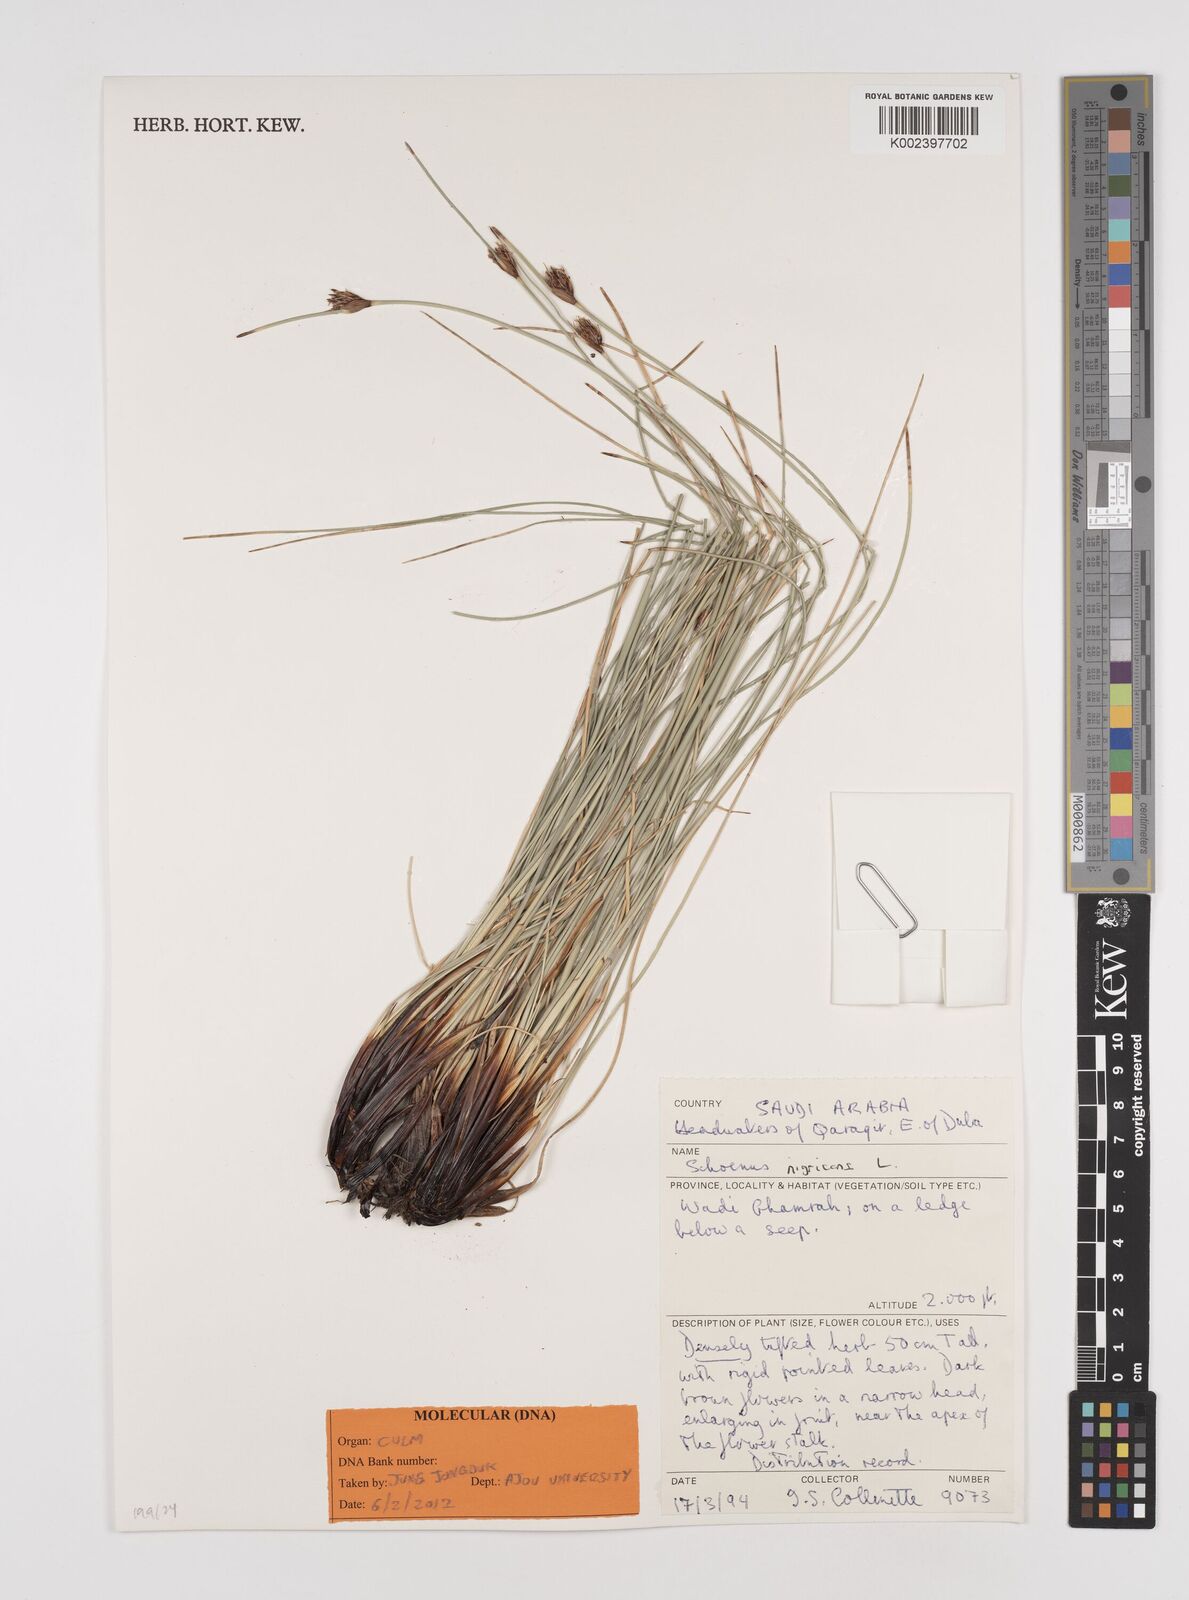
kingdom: Plantae
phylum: Tracheophyta
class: Liliopsida
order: Poales
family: Cyperaceae
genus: Schoenus
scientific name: Schoenus nigricans
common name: Black bog-rush
